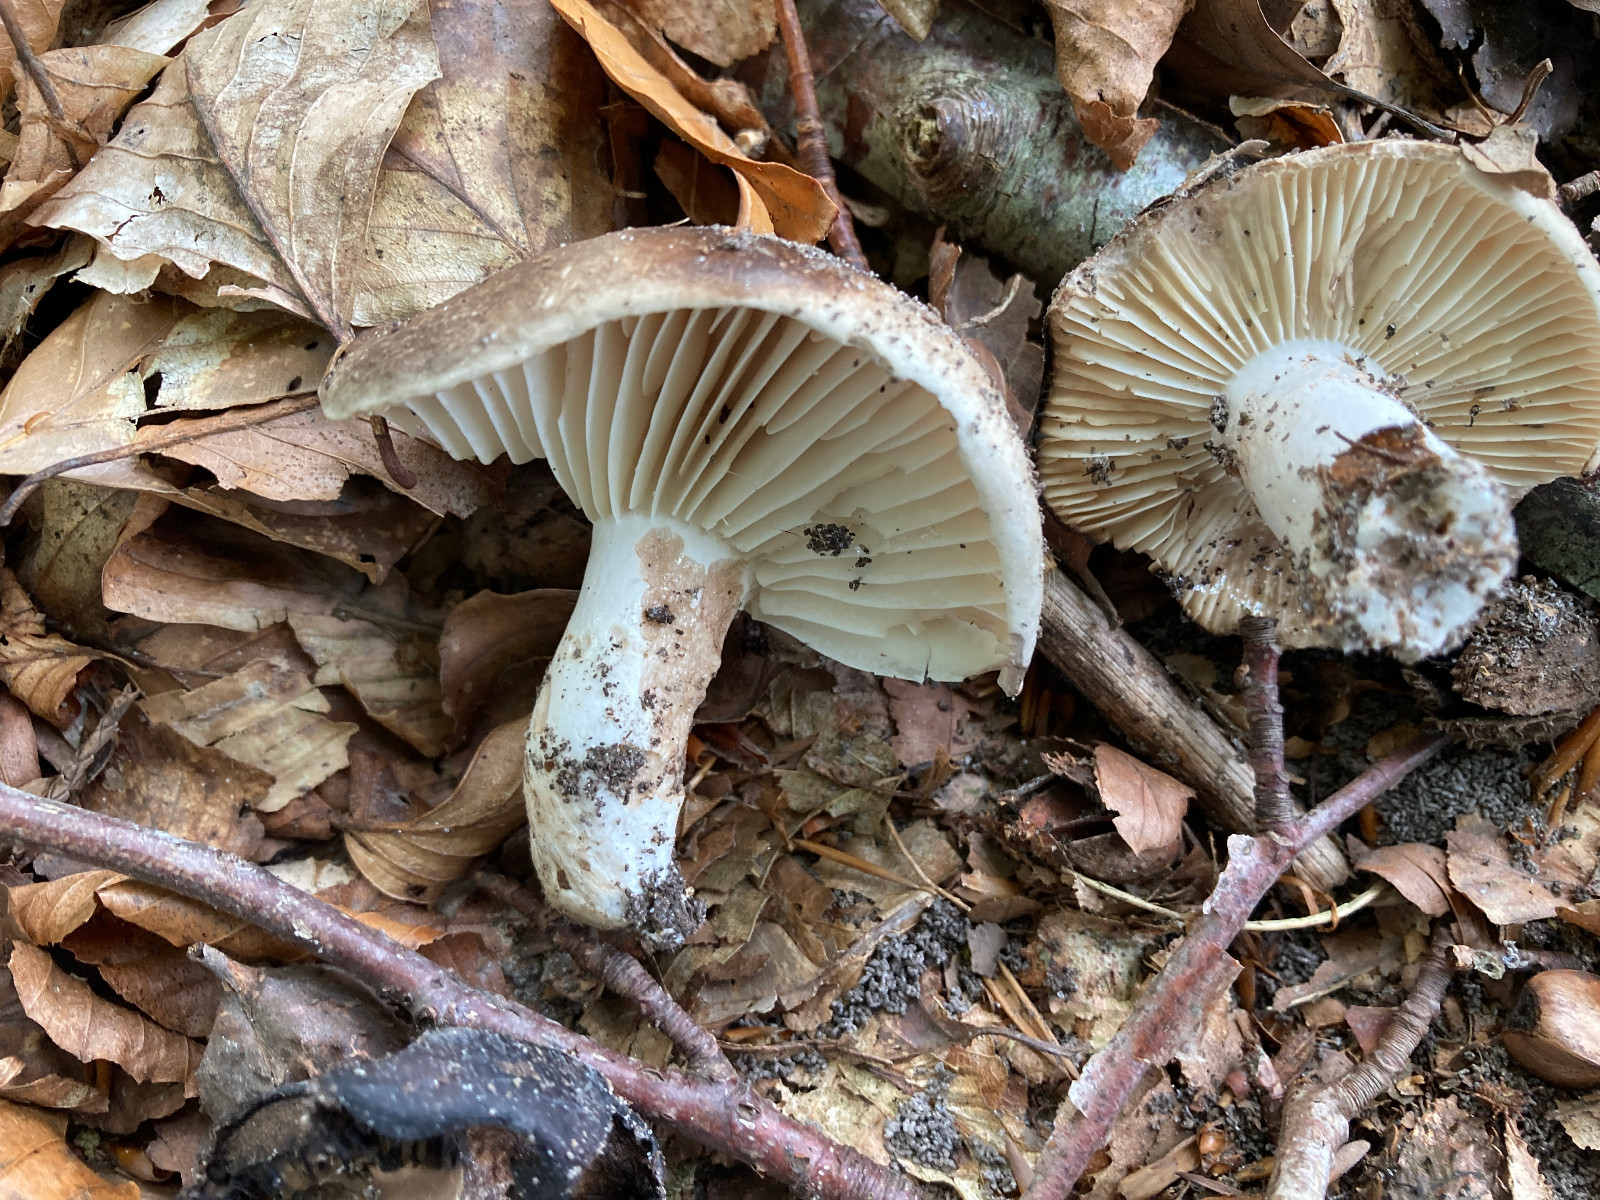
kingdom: Fungi
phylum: Basidiomycota
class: Agaricomycetes
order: Russulales
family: Russulaceae
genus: Russula
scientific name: Russula adusta
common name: sværtende skørhat
